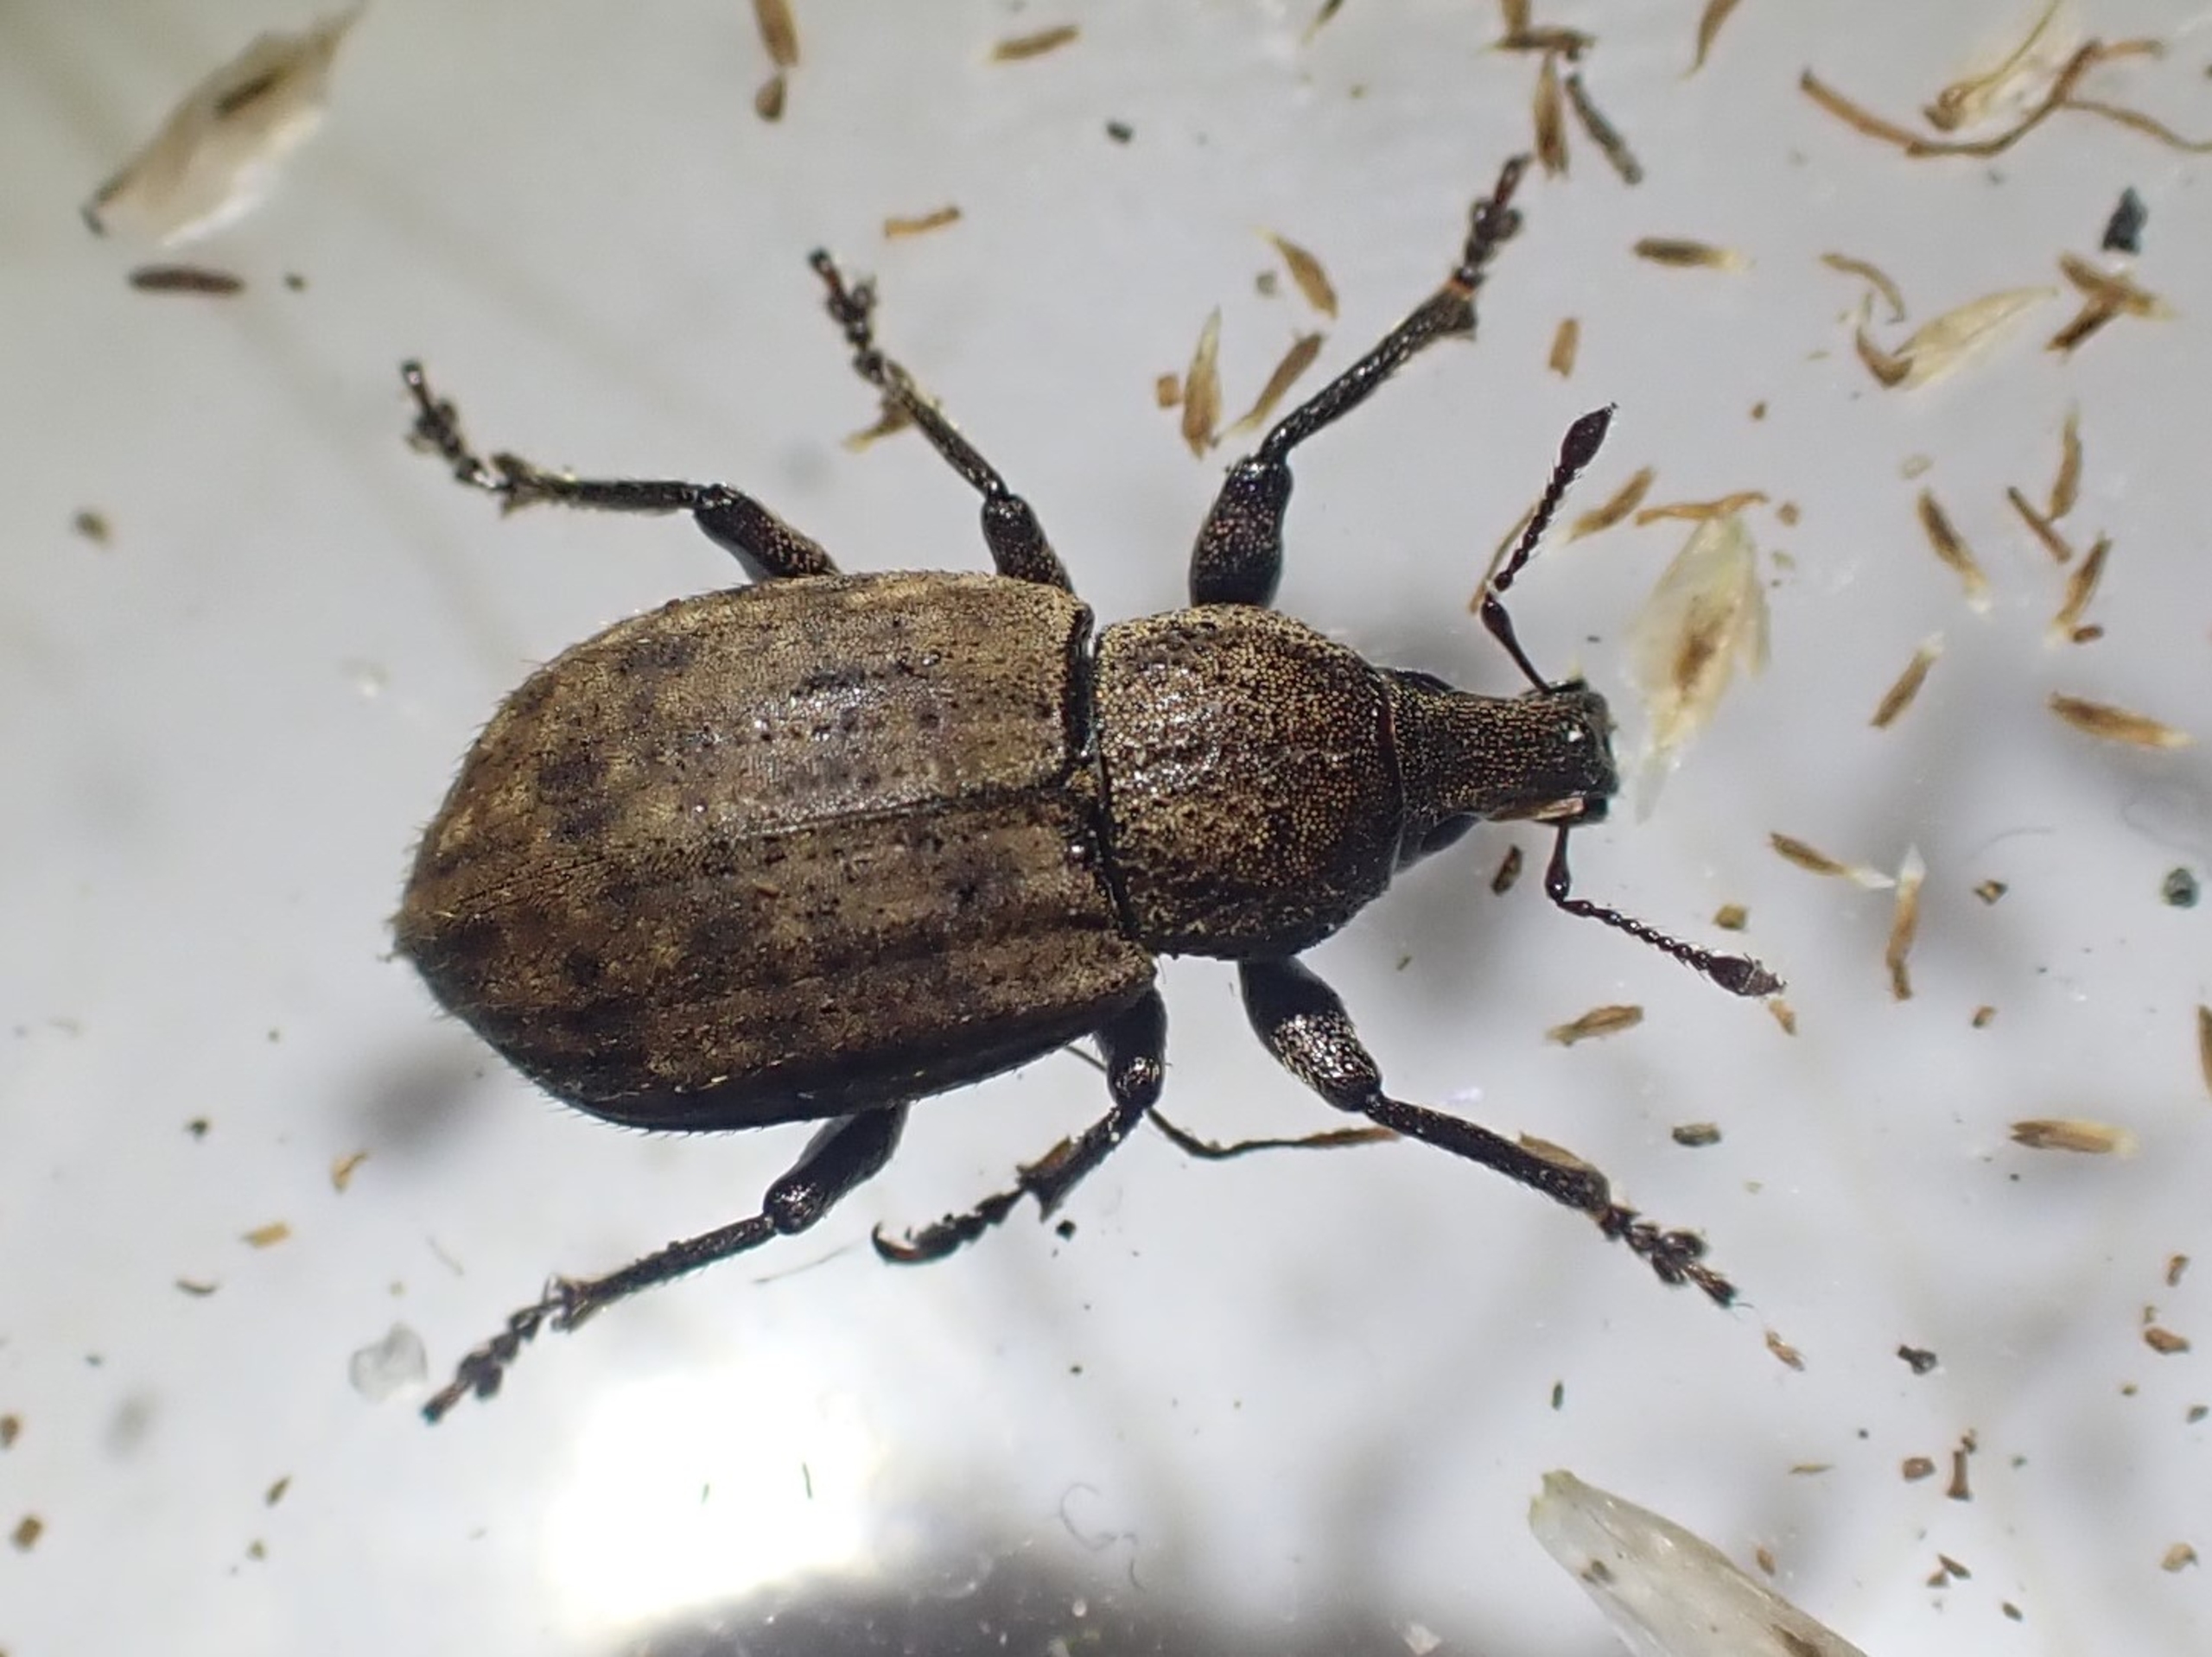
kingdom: Animalia
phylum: Arthropoda
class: Insecta
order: Coleoptera
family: Curculionidae
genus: Barynotus
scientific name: Barynotus obscurus
